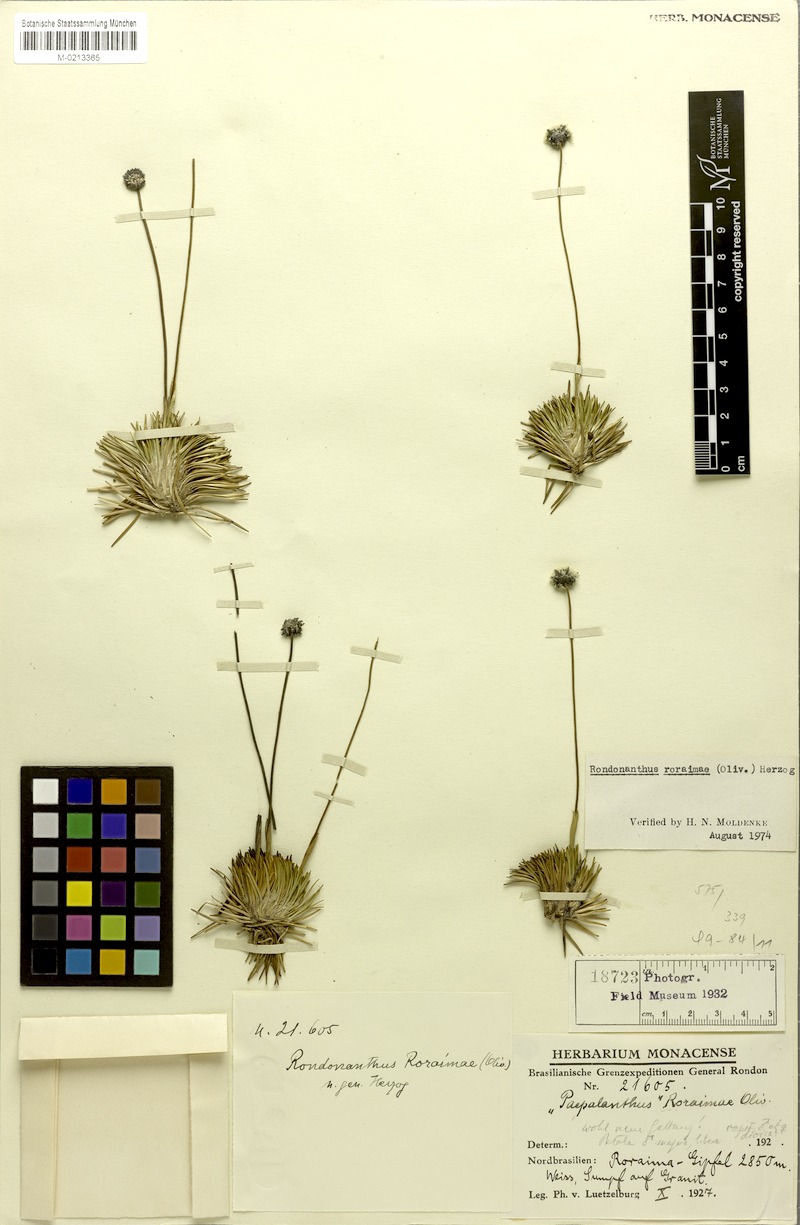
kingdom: Plantae
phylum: Tracheophyta
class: Liliopsida
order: Poales
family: Eriocaulaceae
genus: Rondonanthus
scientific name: Rondonanthus roraimae
